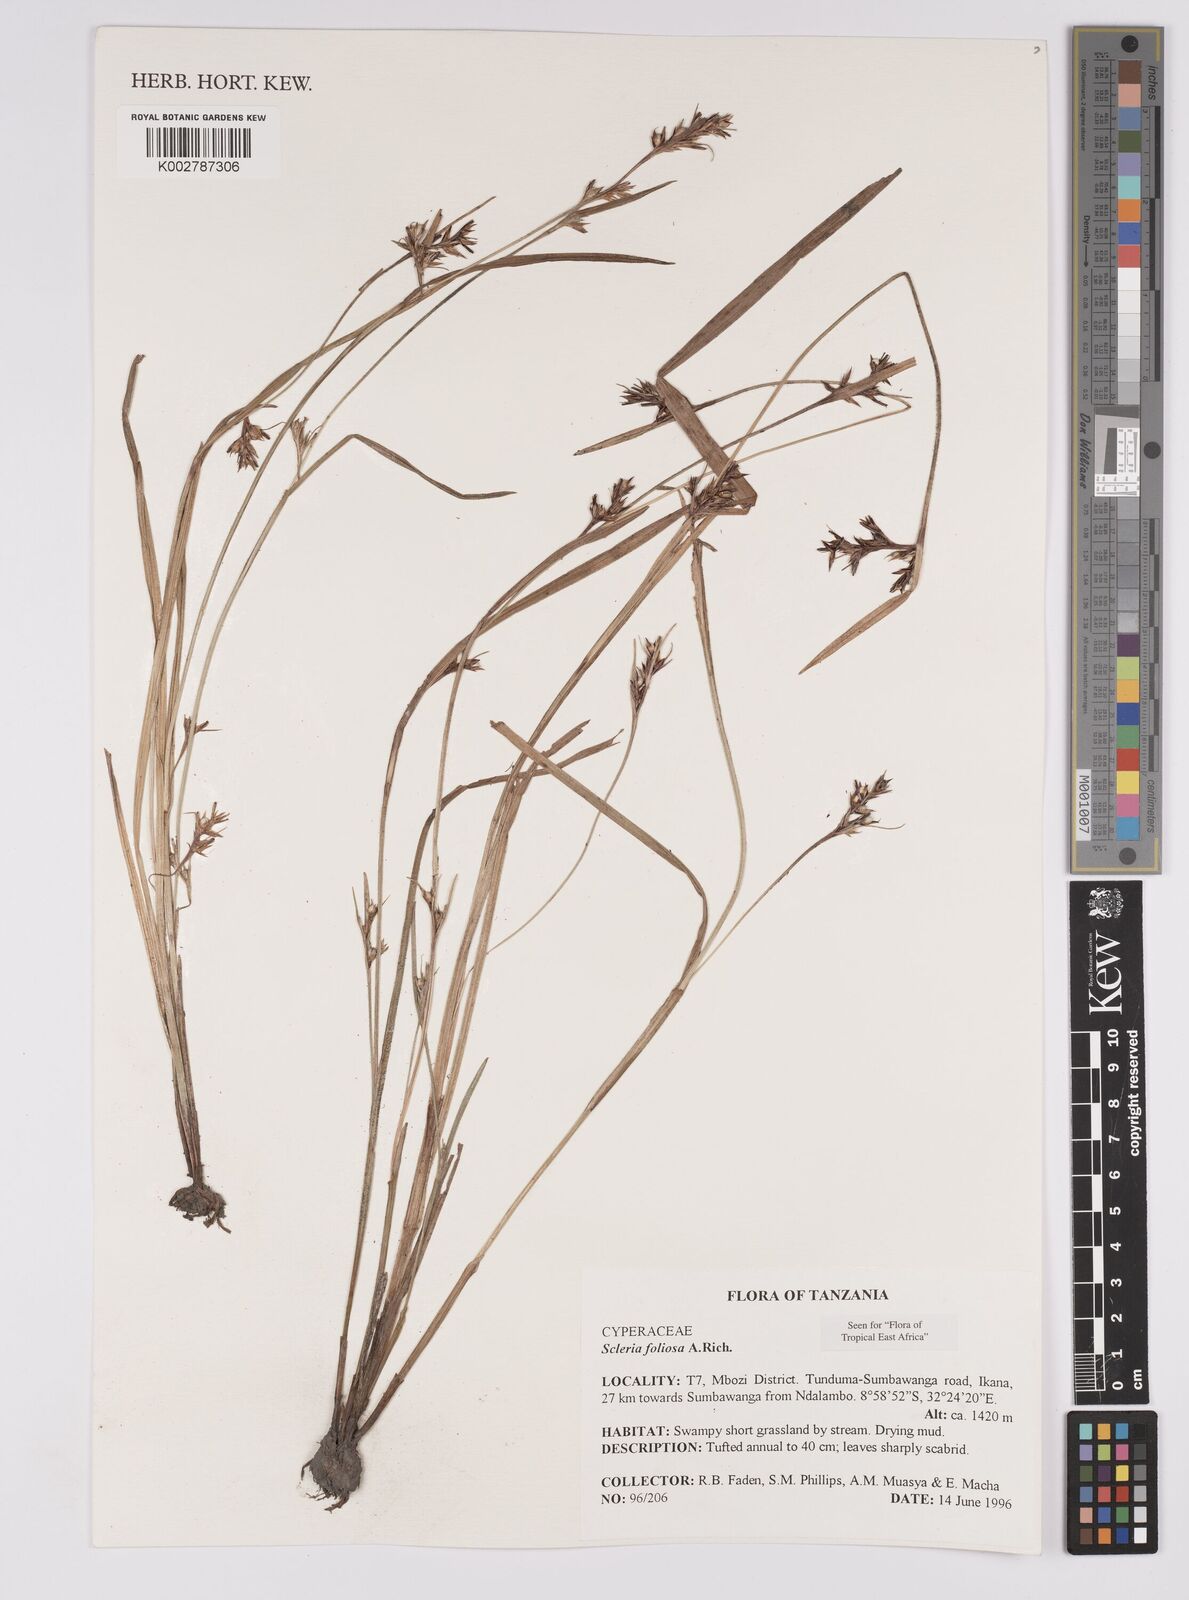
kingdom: Plantae
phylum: Tracheophyta
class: Liliopsida
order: Poales
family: Cyperaceae
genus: Scleria
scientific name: Scleria foliosa
